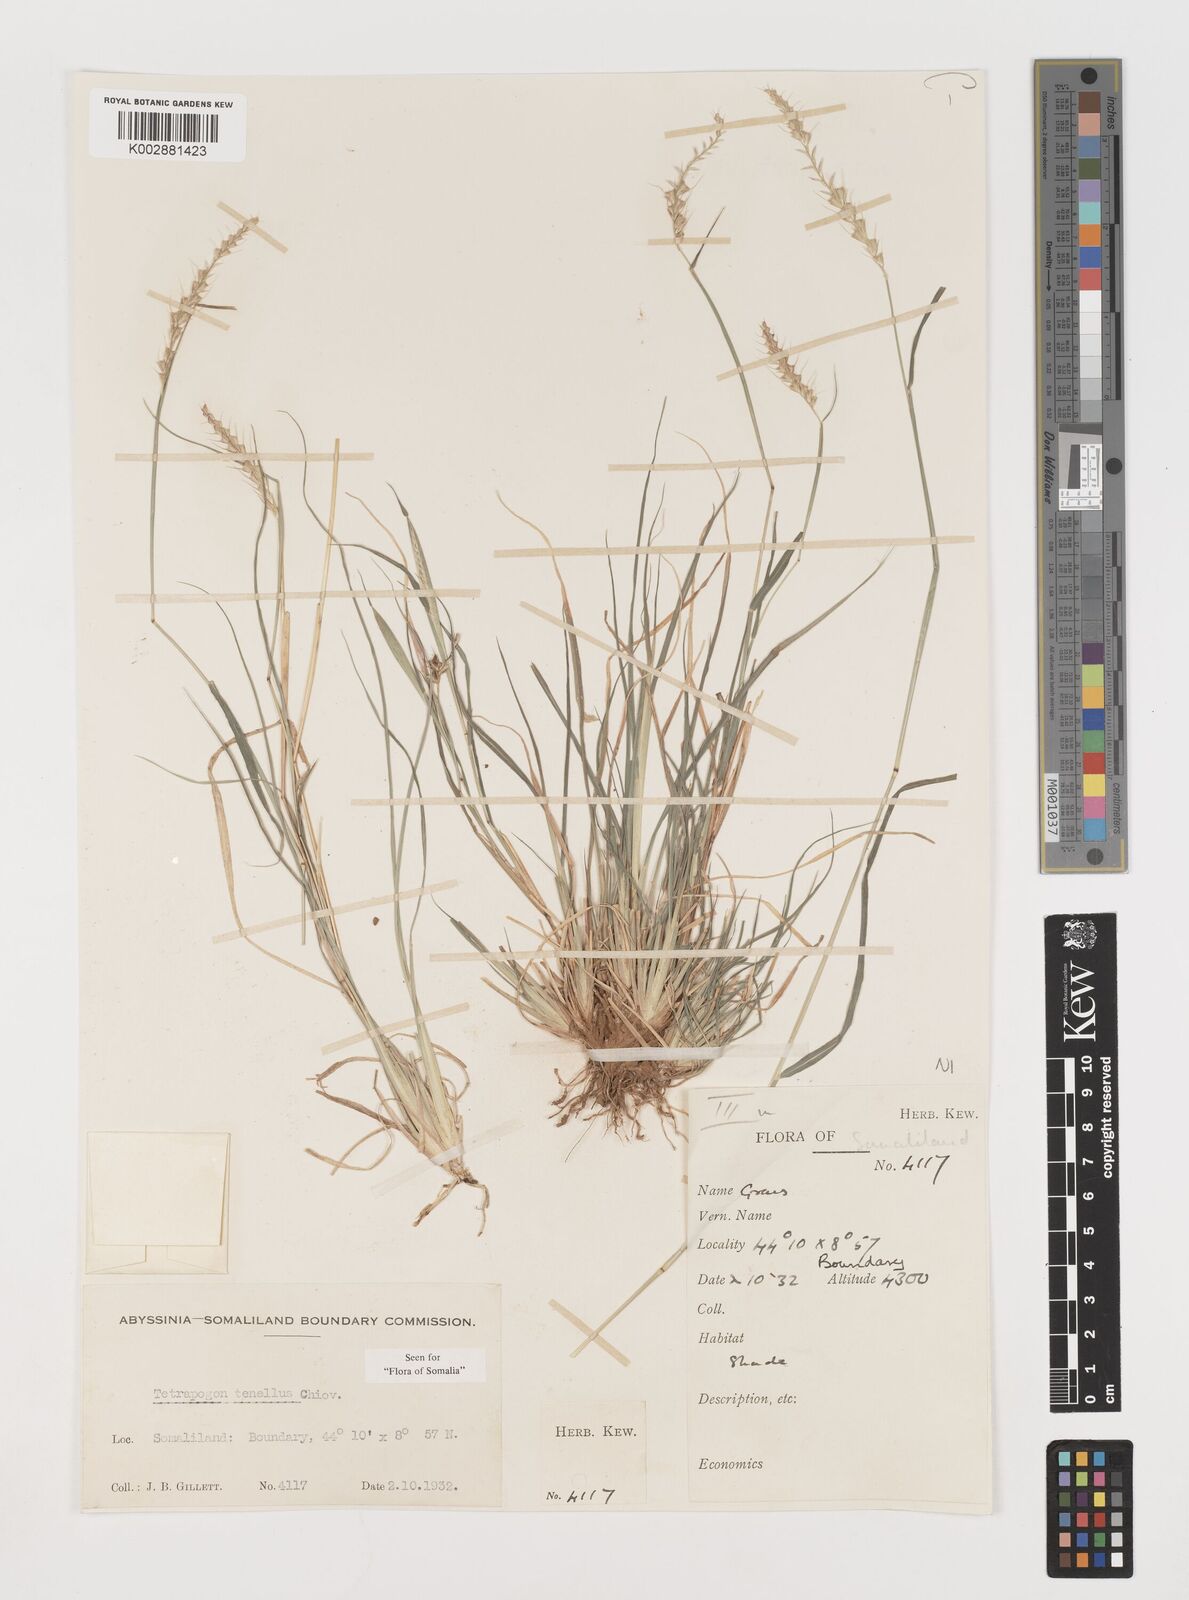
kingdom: Plantae
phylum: Tracheophyta
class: Liliopsida
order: Poales
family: Poaceae
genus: Tetrapogon
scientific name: Tetrapogon tenellus
